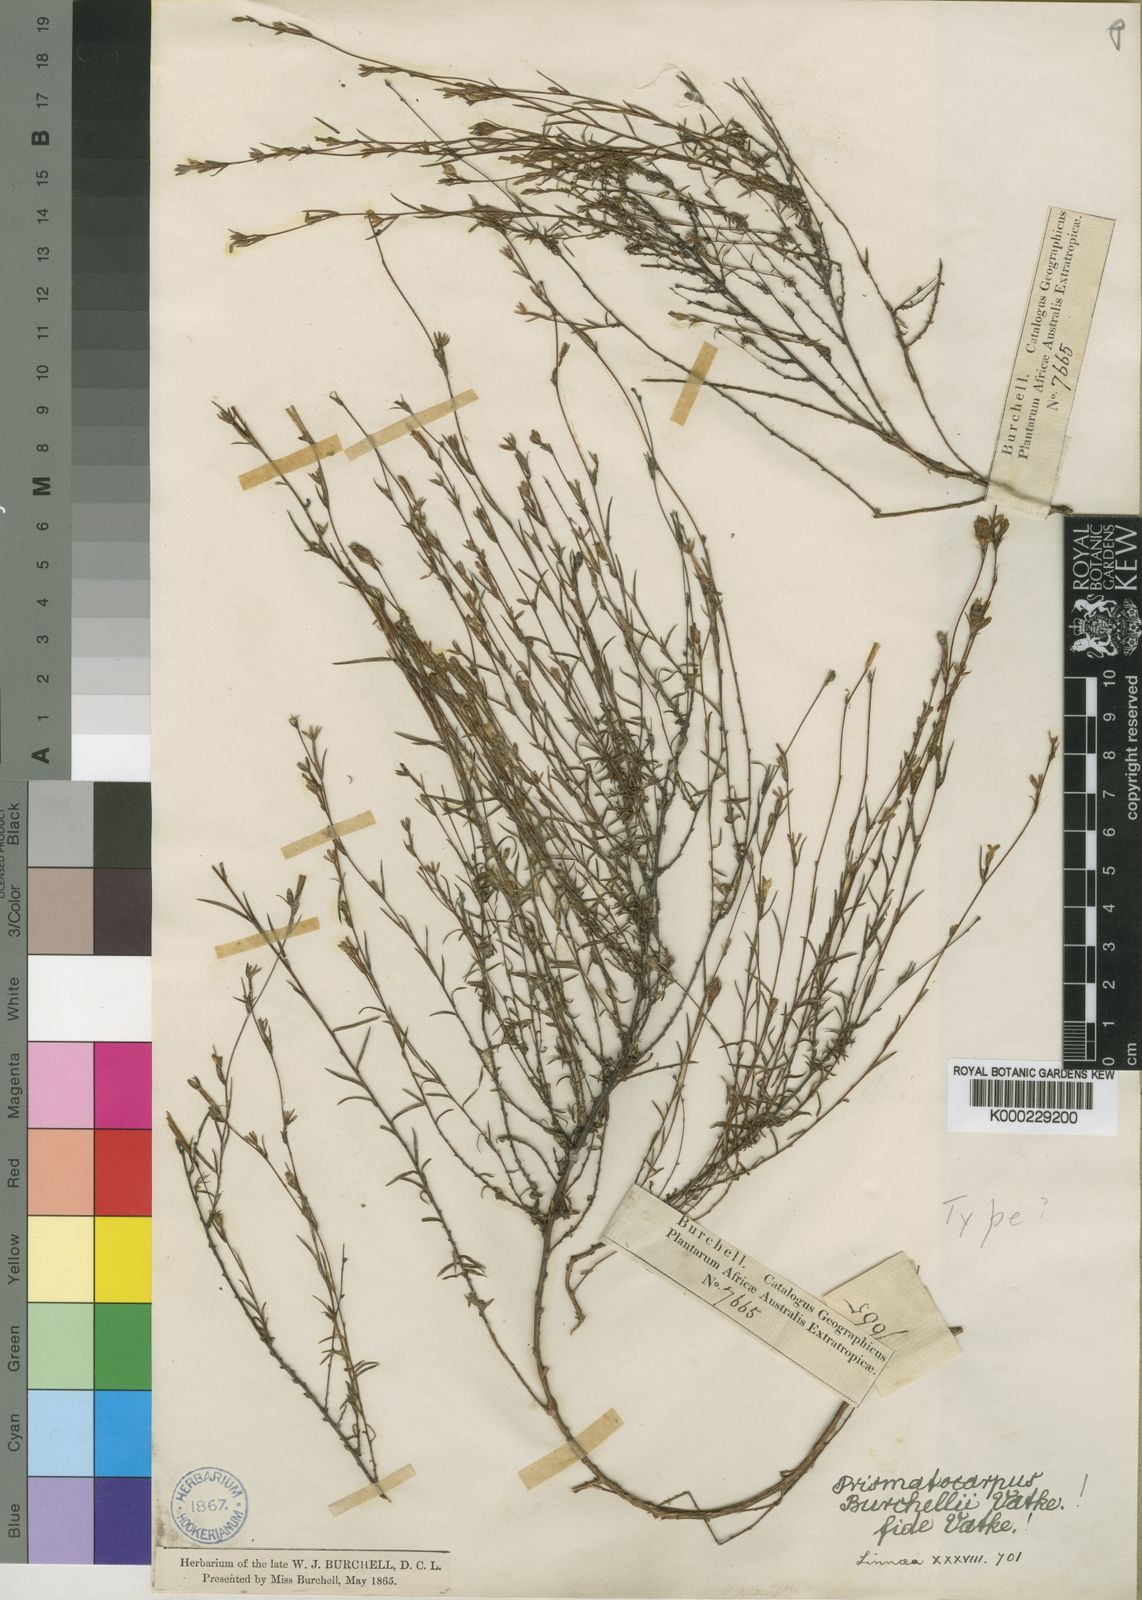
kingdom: Plantae
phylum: Tracheophyta
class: Magnoliopsida
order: Asterales
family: Campanulaceae
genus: Prismatocarpus
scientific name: Prismatocarpus tenerrimus
